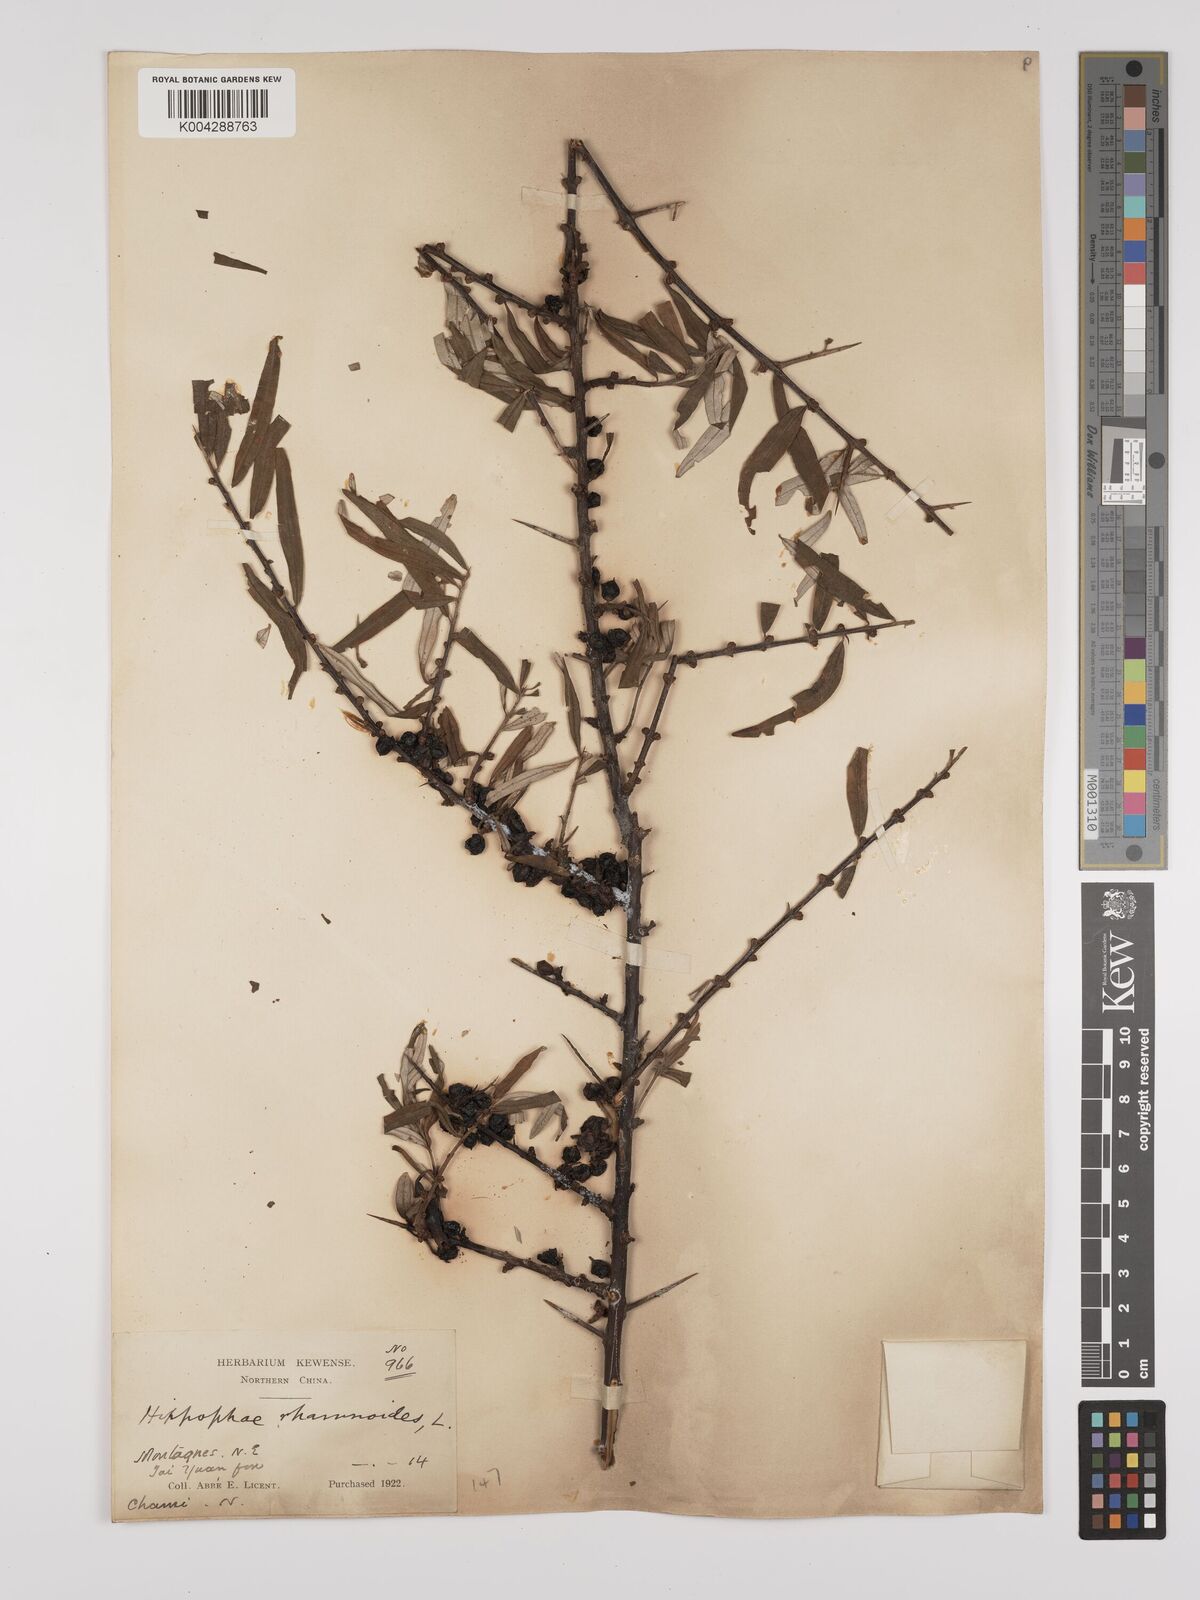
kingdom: Plantae
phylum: Tracheophyta
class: Magnoliopsida
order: Rosales
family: Elaeagnaceae
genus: Hippophae
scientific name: Hippophae rhamnoides
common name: Sea-buckthorn
